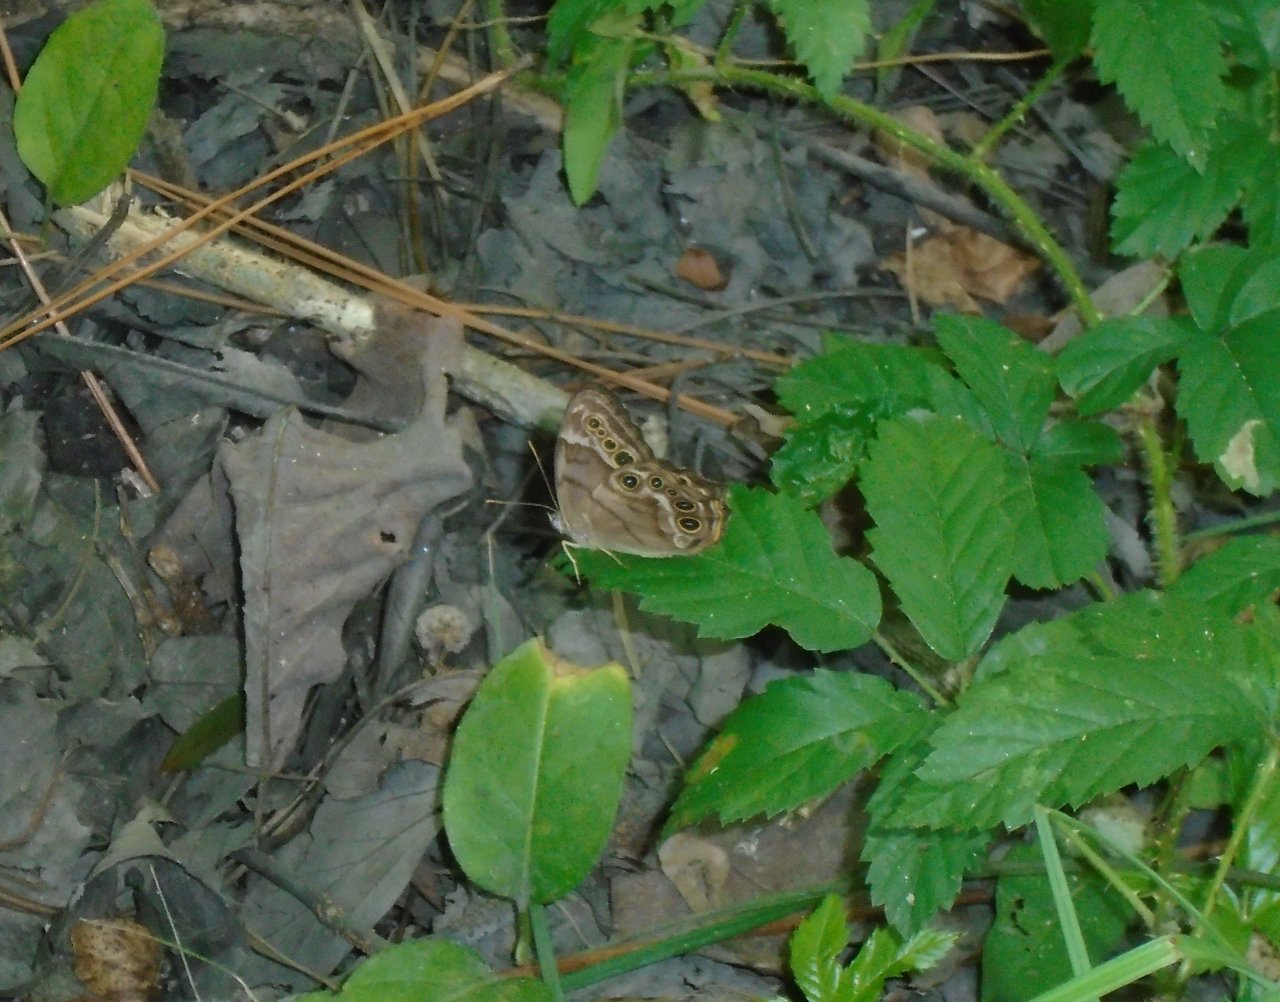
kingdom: Animalia
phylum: Arthropoda
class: Insecta
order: Lepidoptera
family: Nymphalidae
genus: Enodia
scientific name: Enodia portlandia
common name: Southern Pearly Eye
